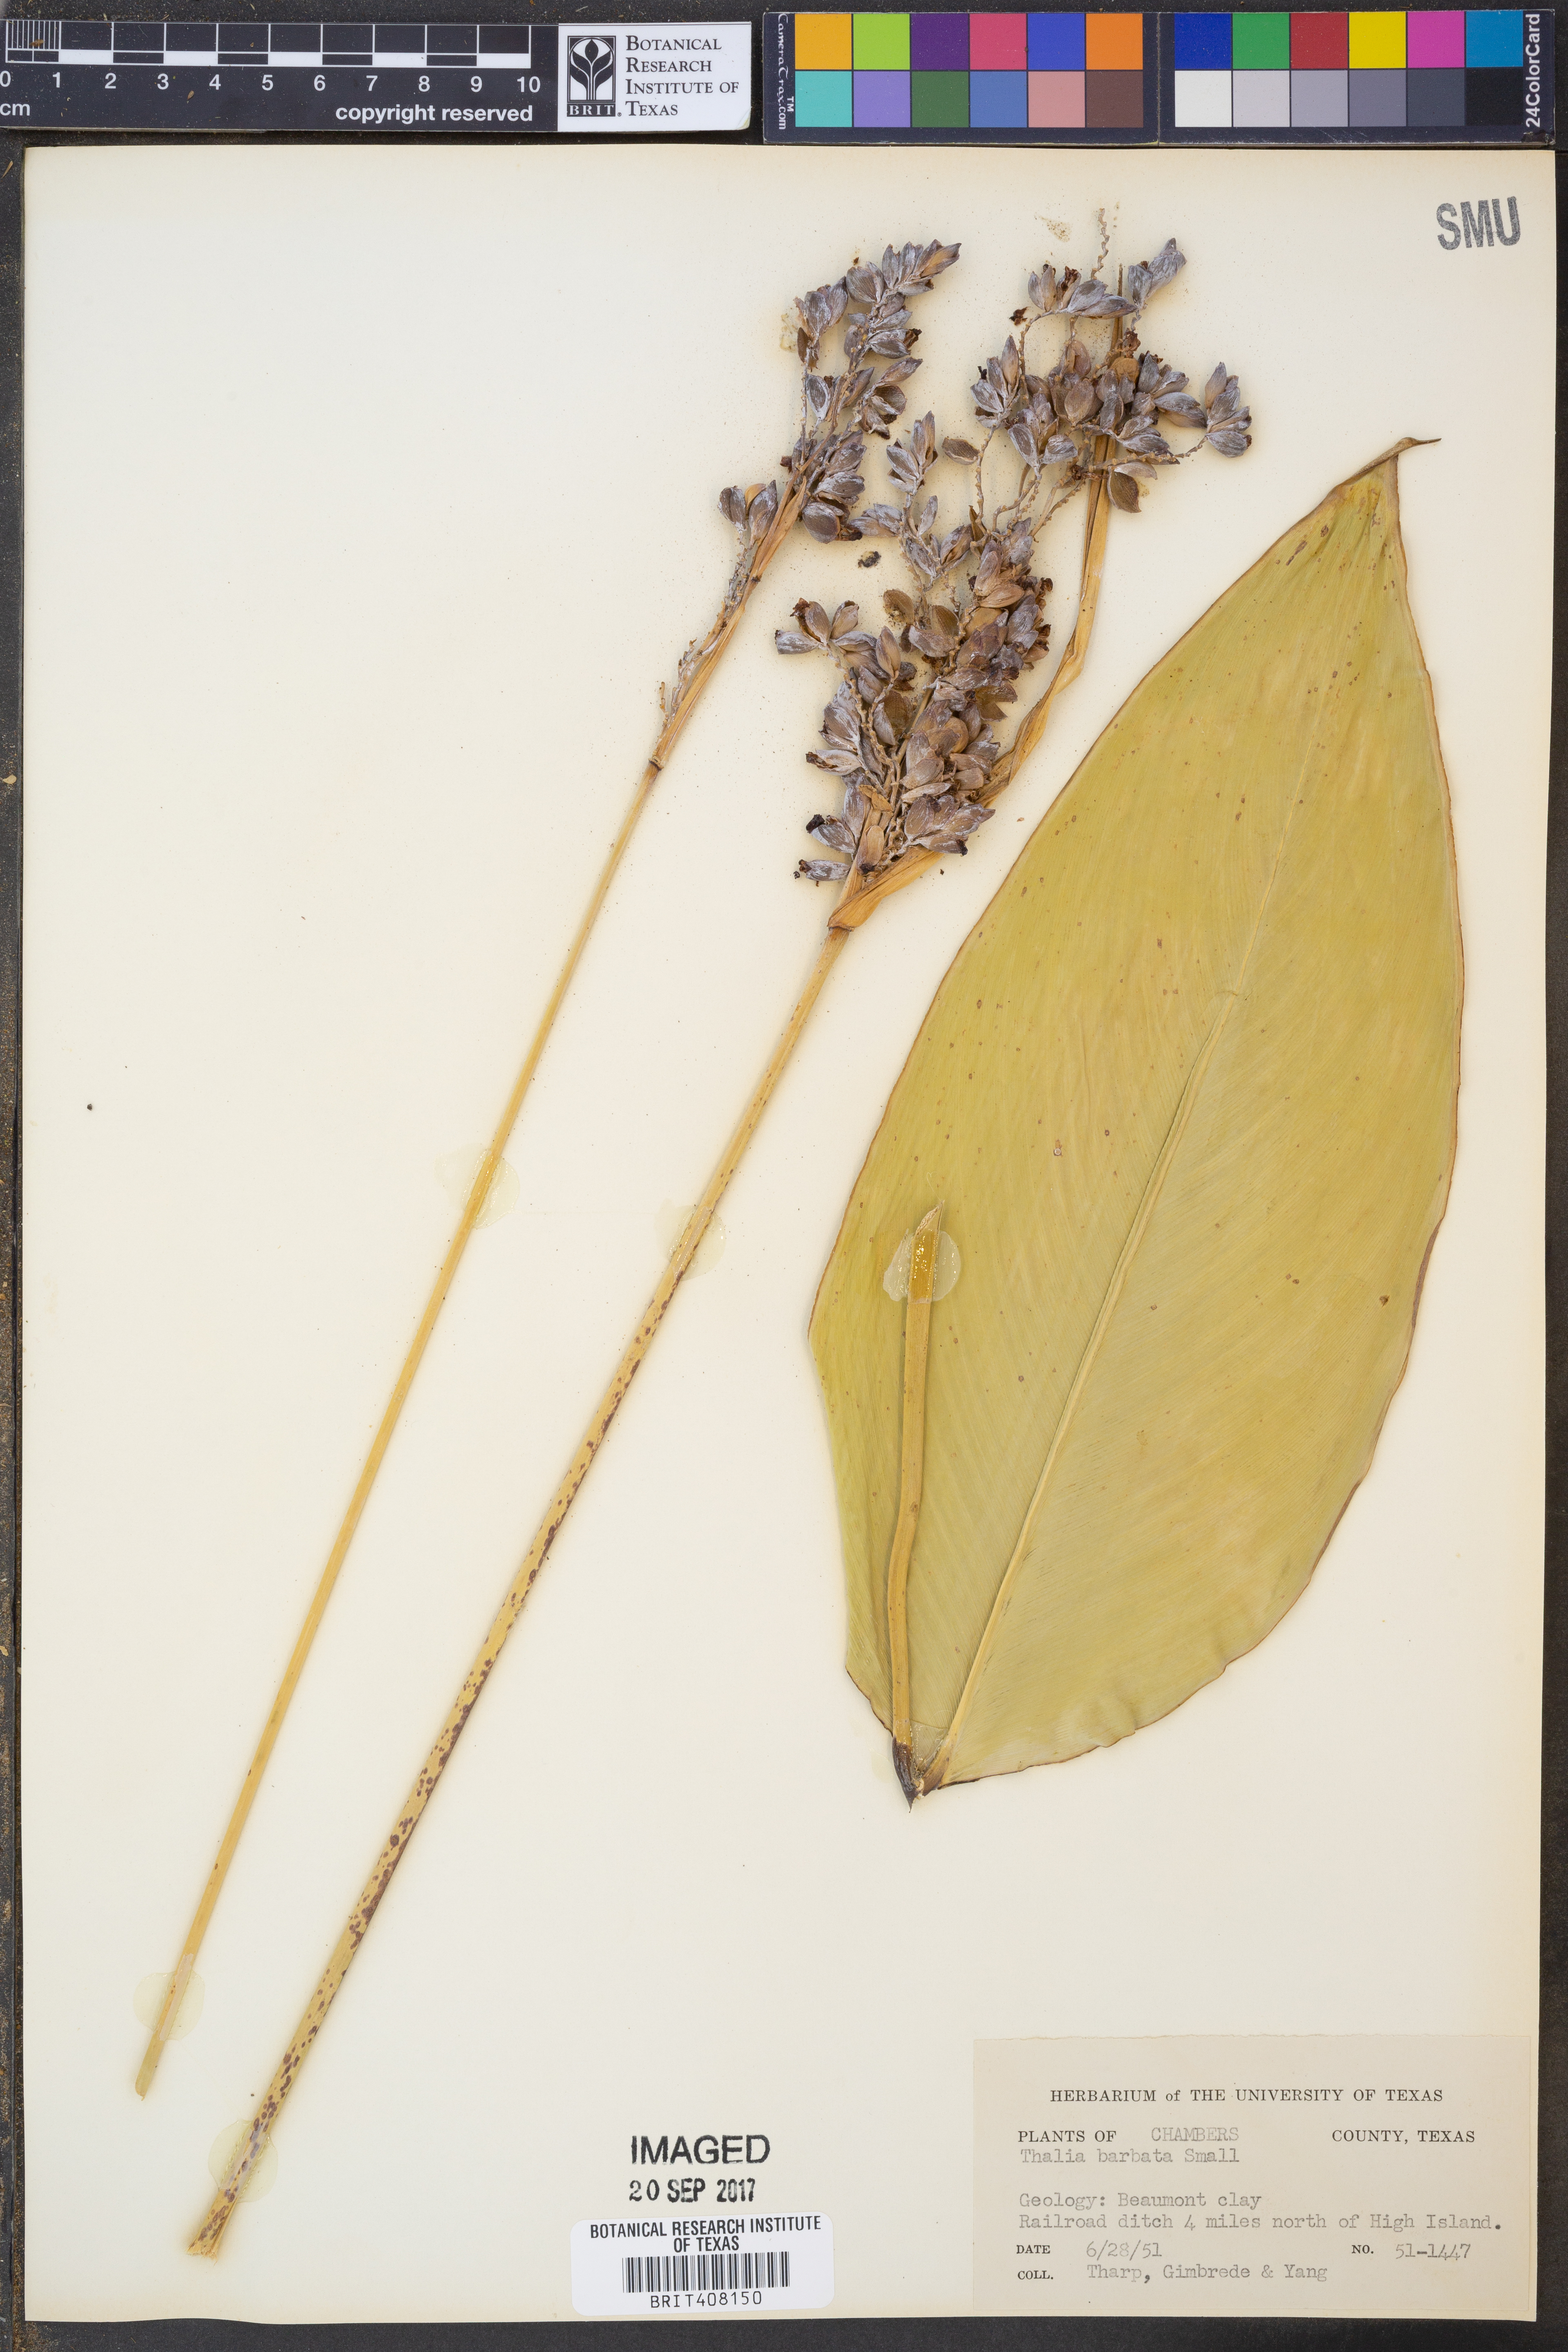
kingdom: Plantae
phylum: Tracheophyta
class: Liliopsida
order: Zingiberales
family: Marantaceae
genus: Thalia
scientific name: Thalia dealbata
